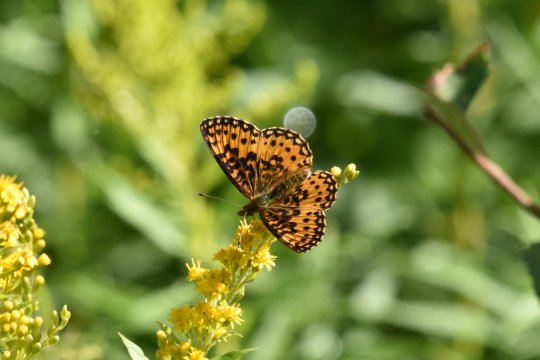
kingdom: Animalia
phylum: Arthropoda
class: Insecta
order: Lepidoptera
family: Nymphalidae
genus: Boloria
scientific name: Boloria selene
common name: Silver-bordered Fritillary
